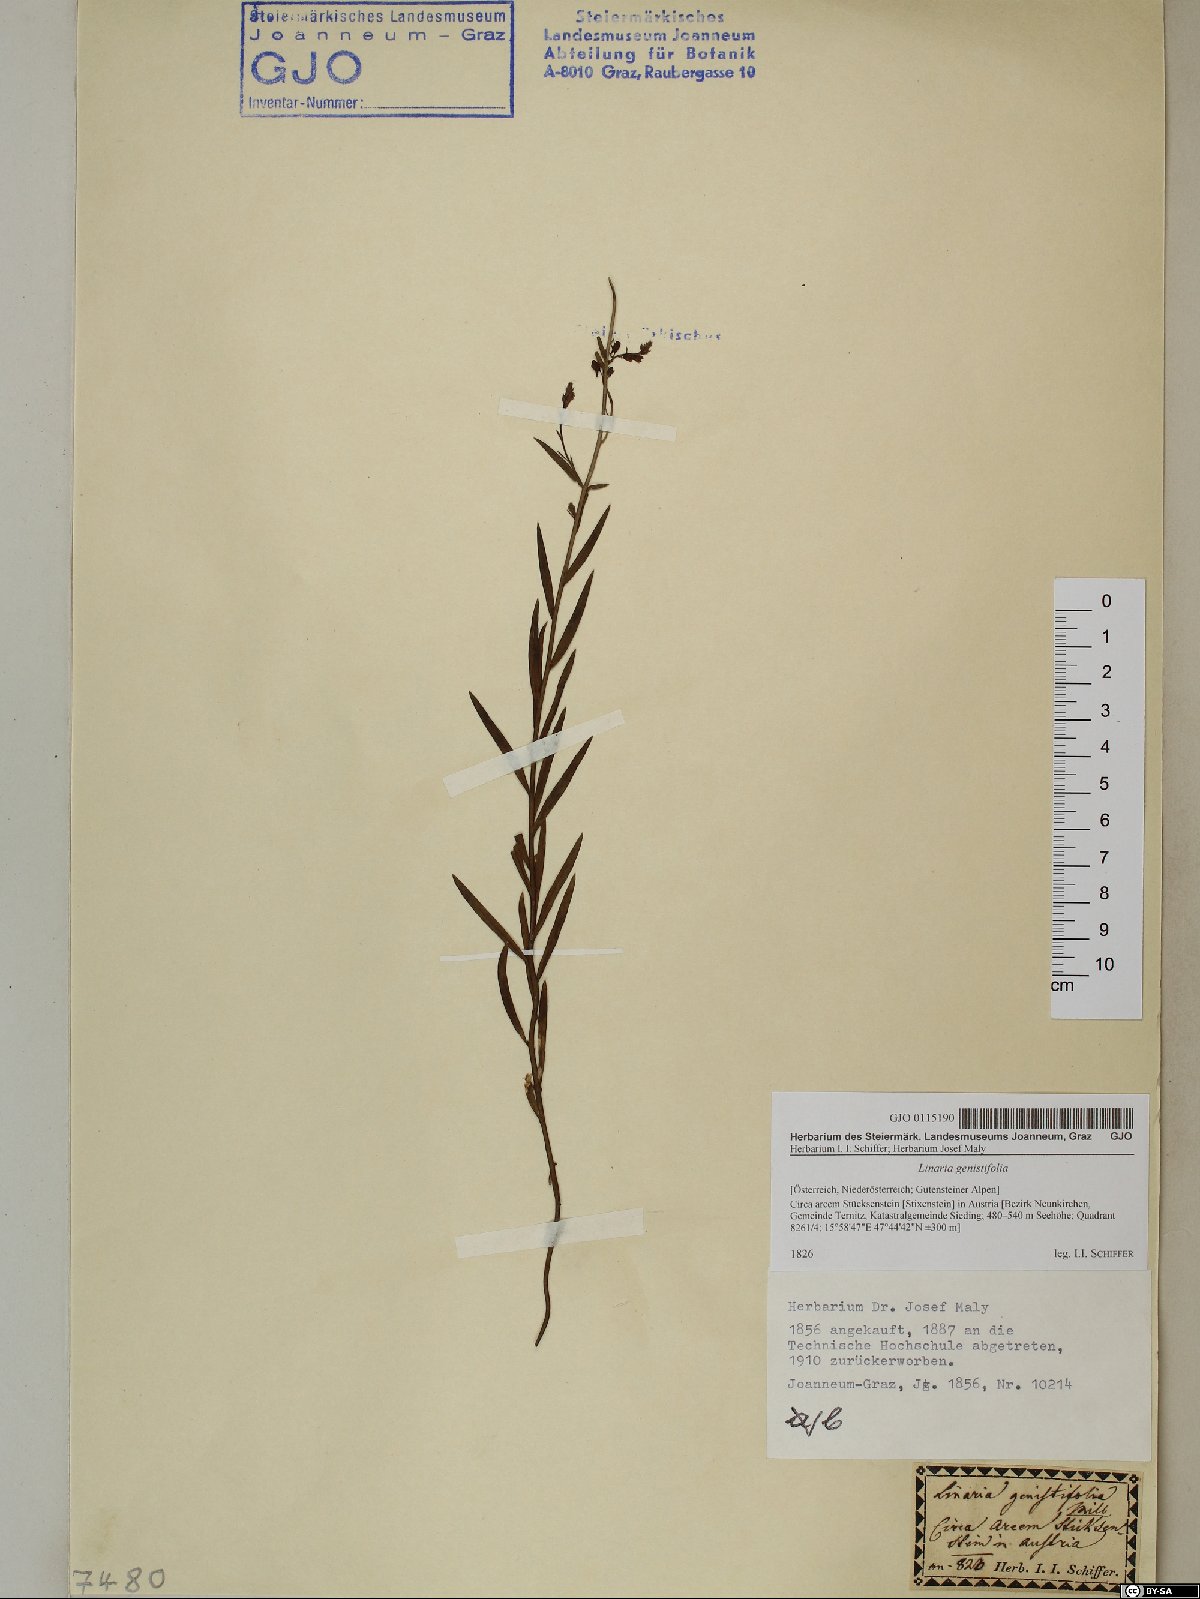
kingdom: Plantae
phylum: Tracheophyta
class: Magnoliopsida
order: Lamiales
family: Plantaginaceae
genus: Linaria
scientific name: Linaria genistifolia
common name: Broomleaf toadflax
